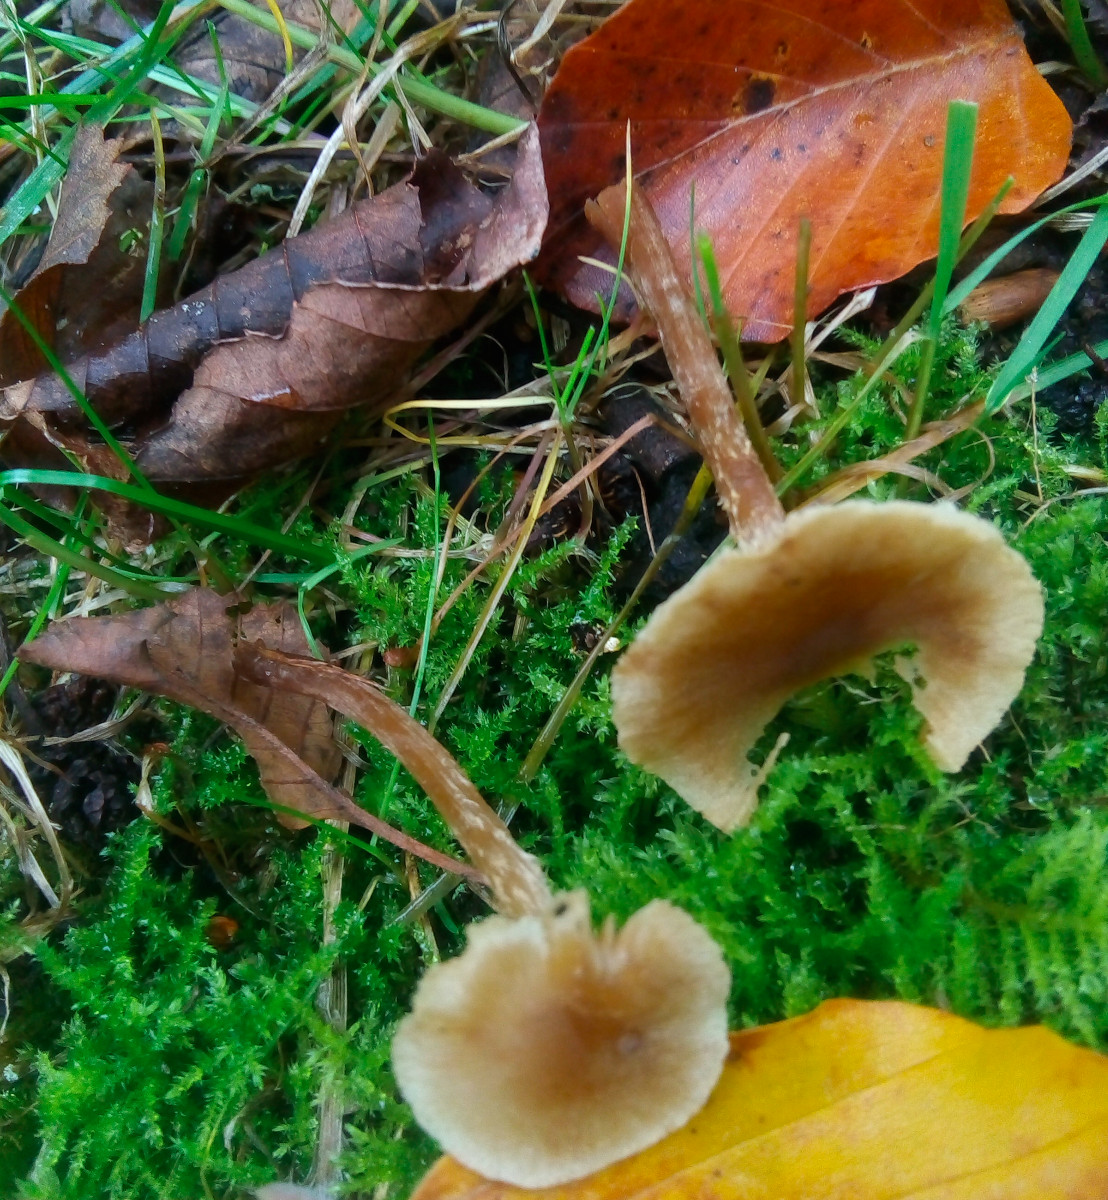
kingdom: Fungi
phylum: Basidiomycota
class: Agaricomycetes
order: Agaricales
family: Hymenogastraceae
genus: Naucoria
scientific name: Naucoria escharioides
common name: lys elle-knaphat
